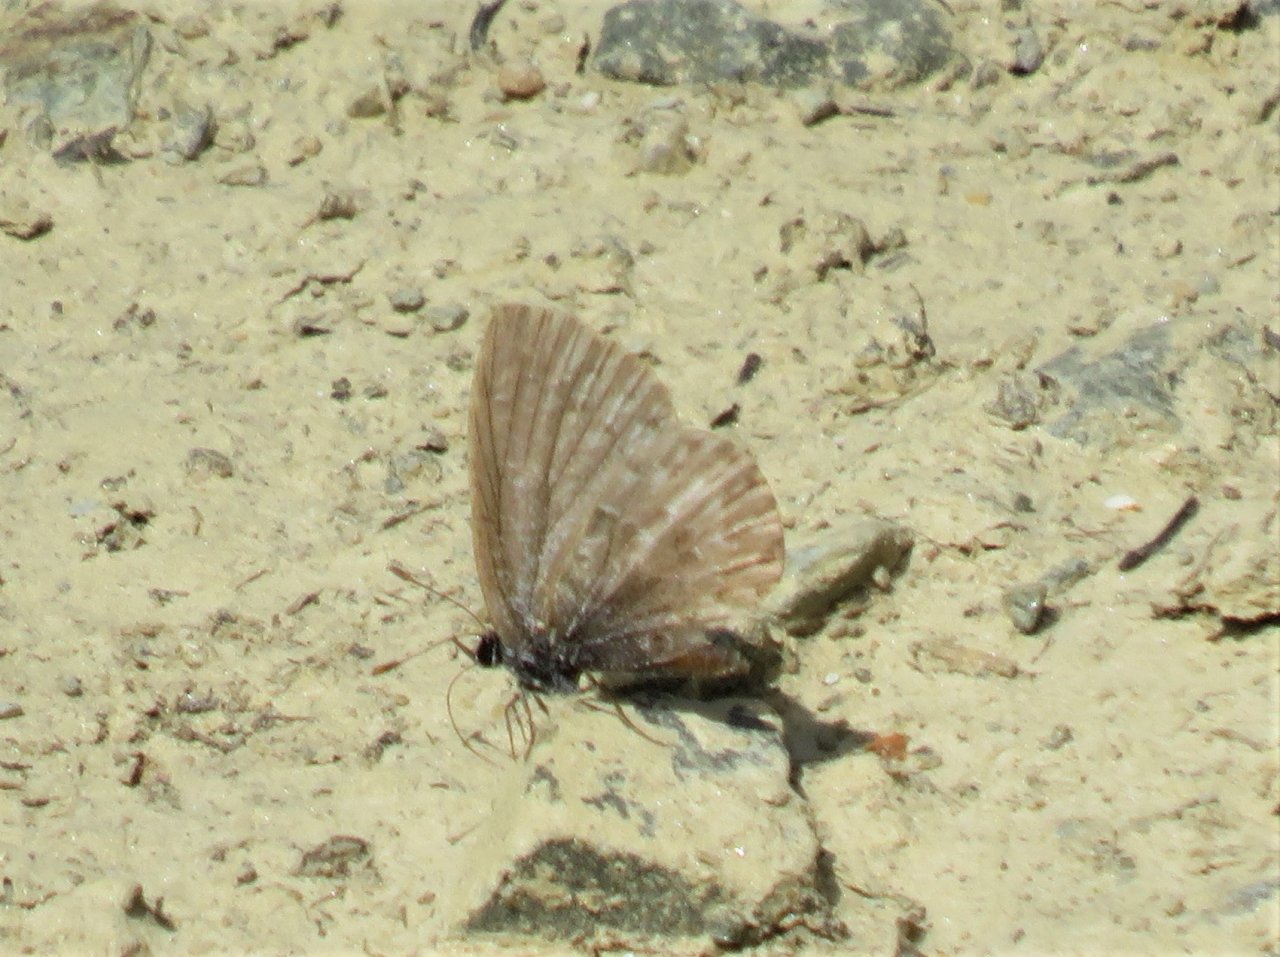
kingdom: Animalia
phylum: Arthropoda
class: Insecta
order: Lepidoptera
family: Lycaenidae
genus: Celastrina
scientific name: Celastrina lucia
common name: Northern Spring Azure
